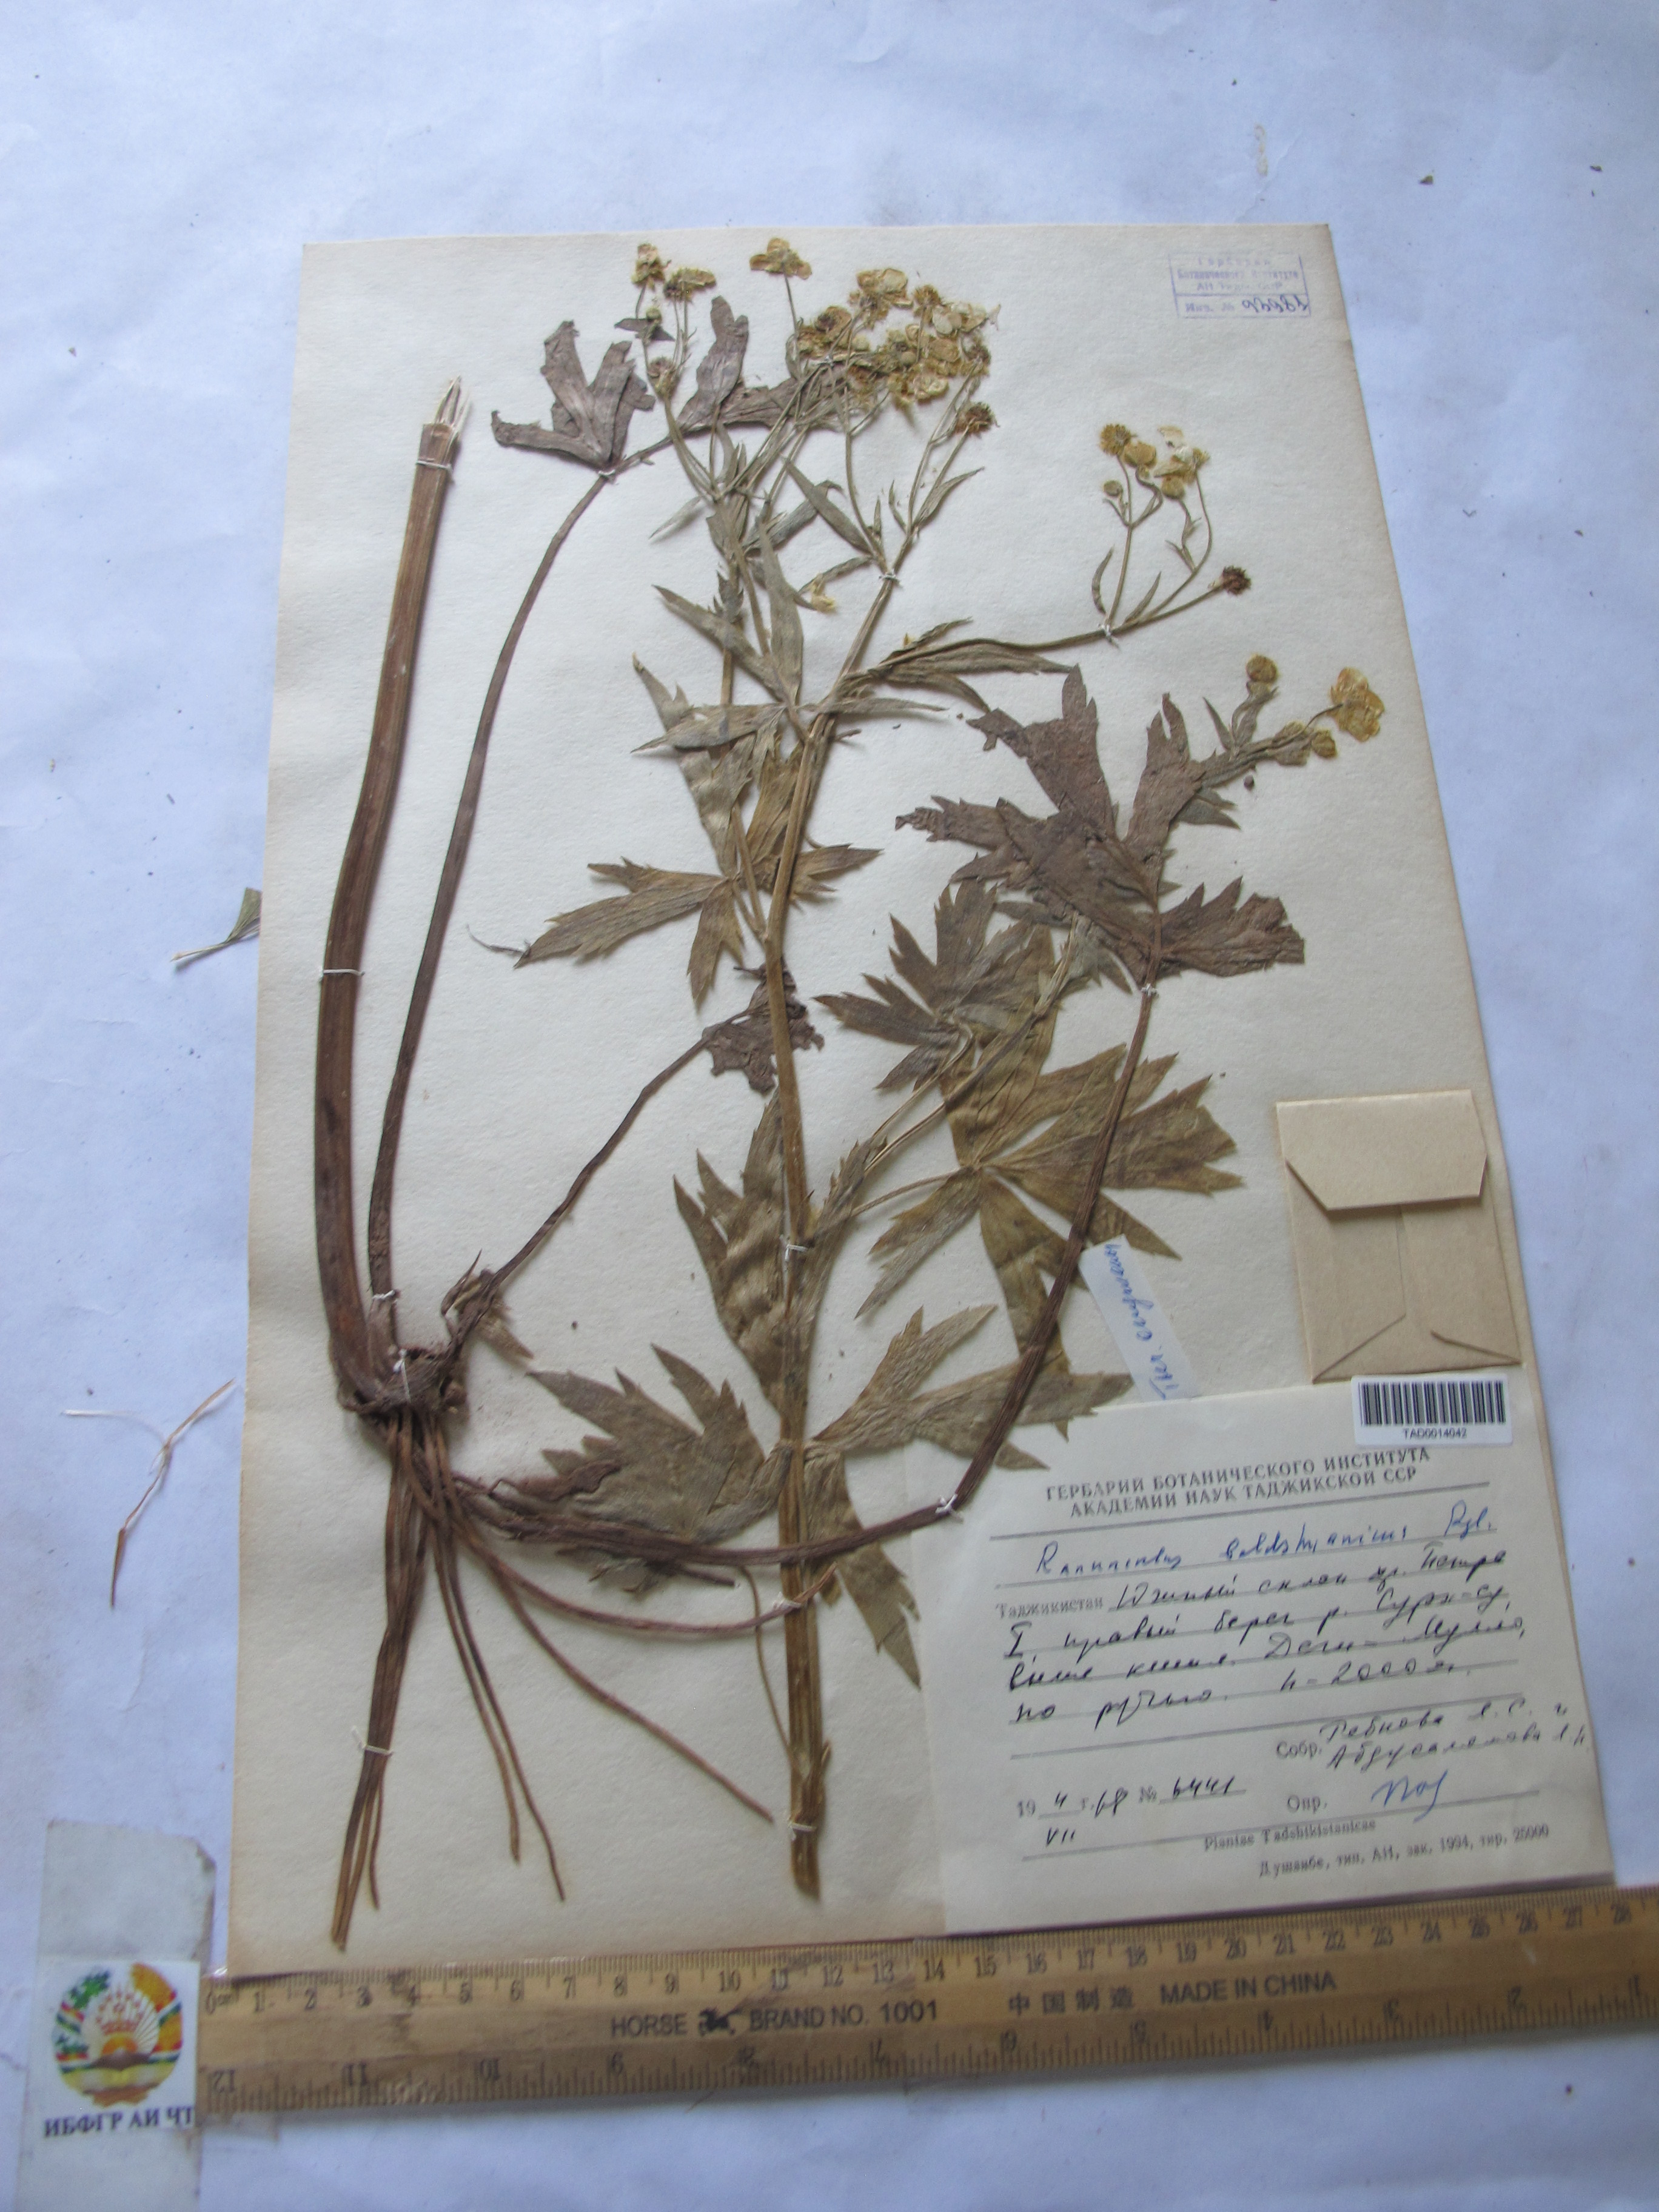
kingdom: Plantae
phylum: Tracheophyta
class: Magnoliopsida
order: Ranunculales
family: Ranunculaceae
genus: Ranunculus
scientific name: Ranunculus baldshuanicus
